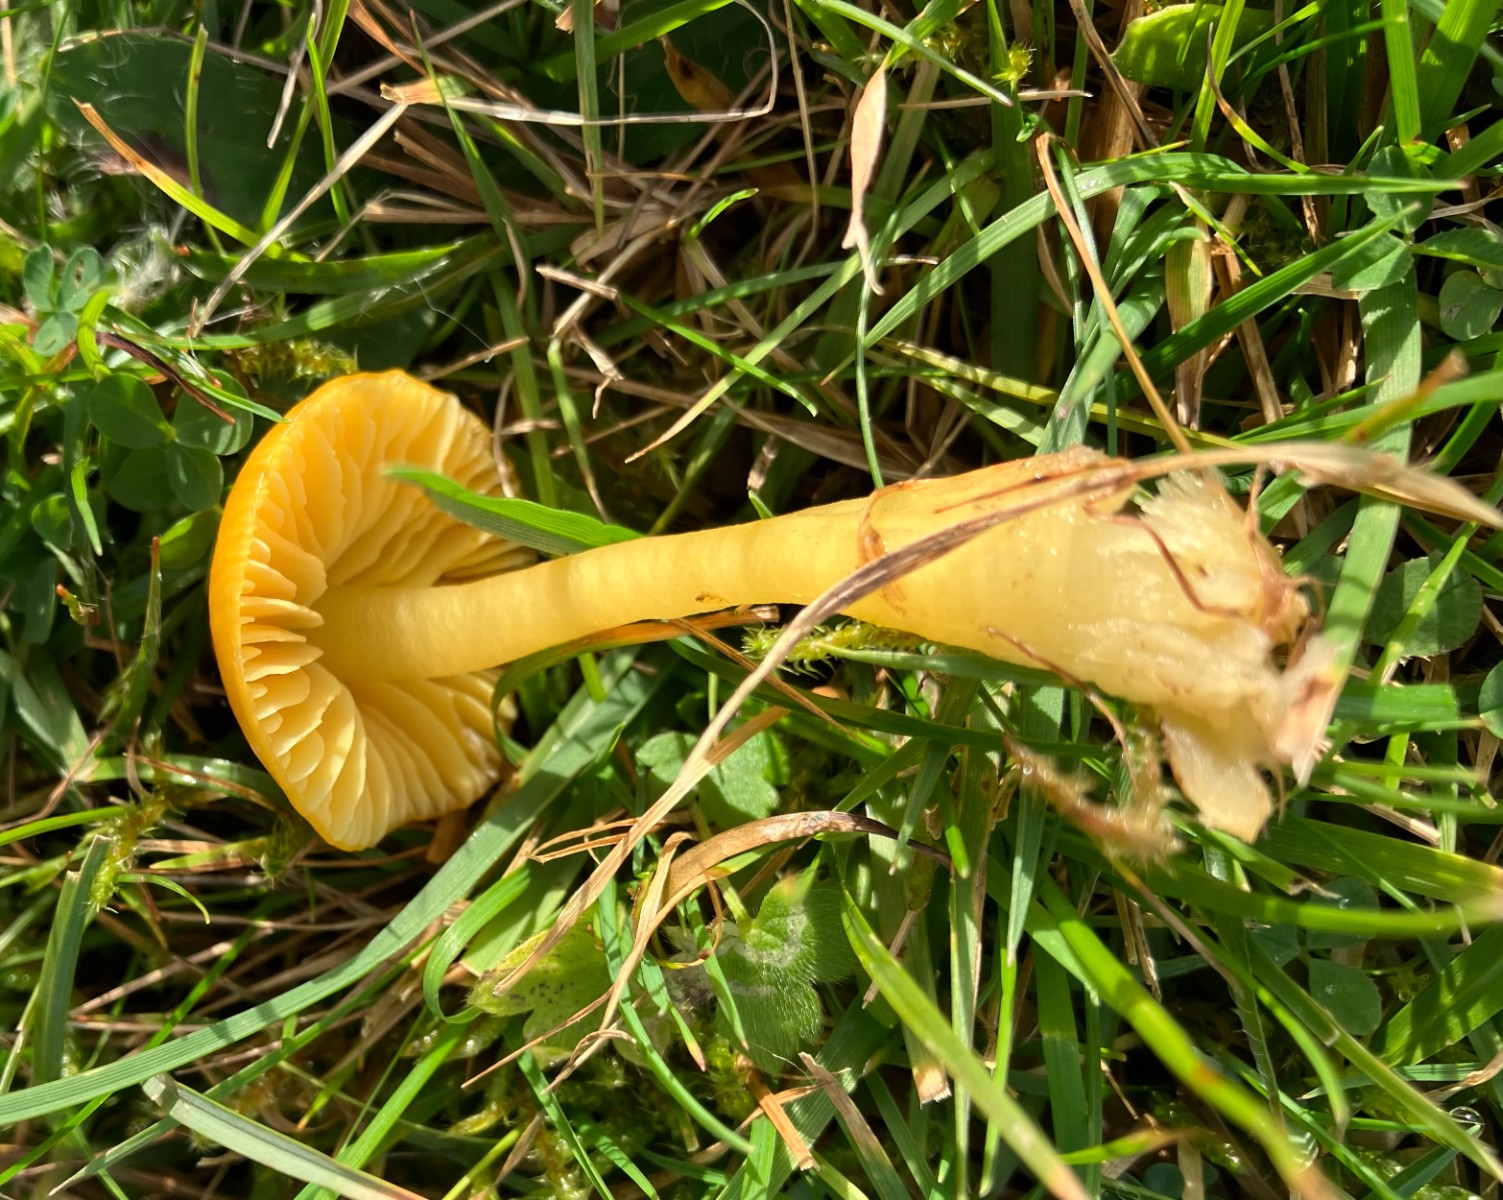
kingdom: Fungi
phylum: Basidiomycota
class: Agaricomycetes
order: Agaricales
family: Hygrophoraceae
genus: Gliophorus
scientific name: Gliophorus psittacinus
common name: papegøje-vokshat
